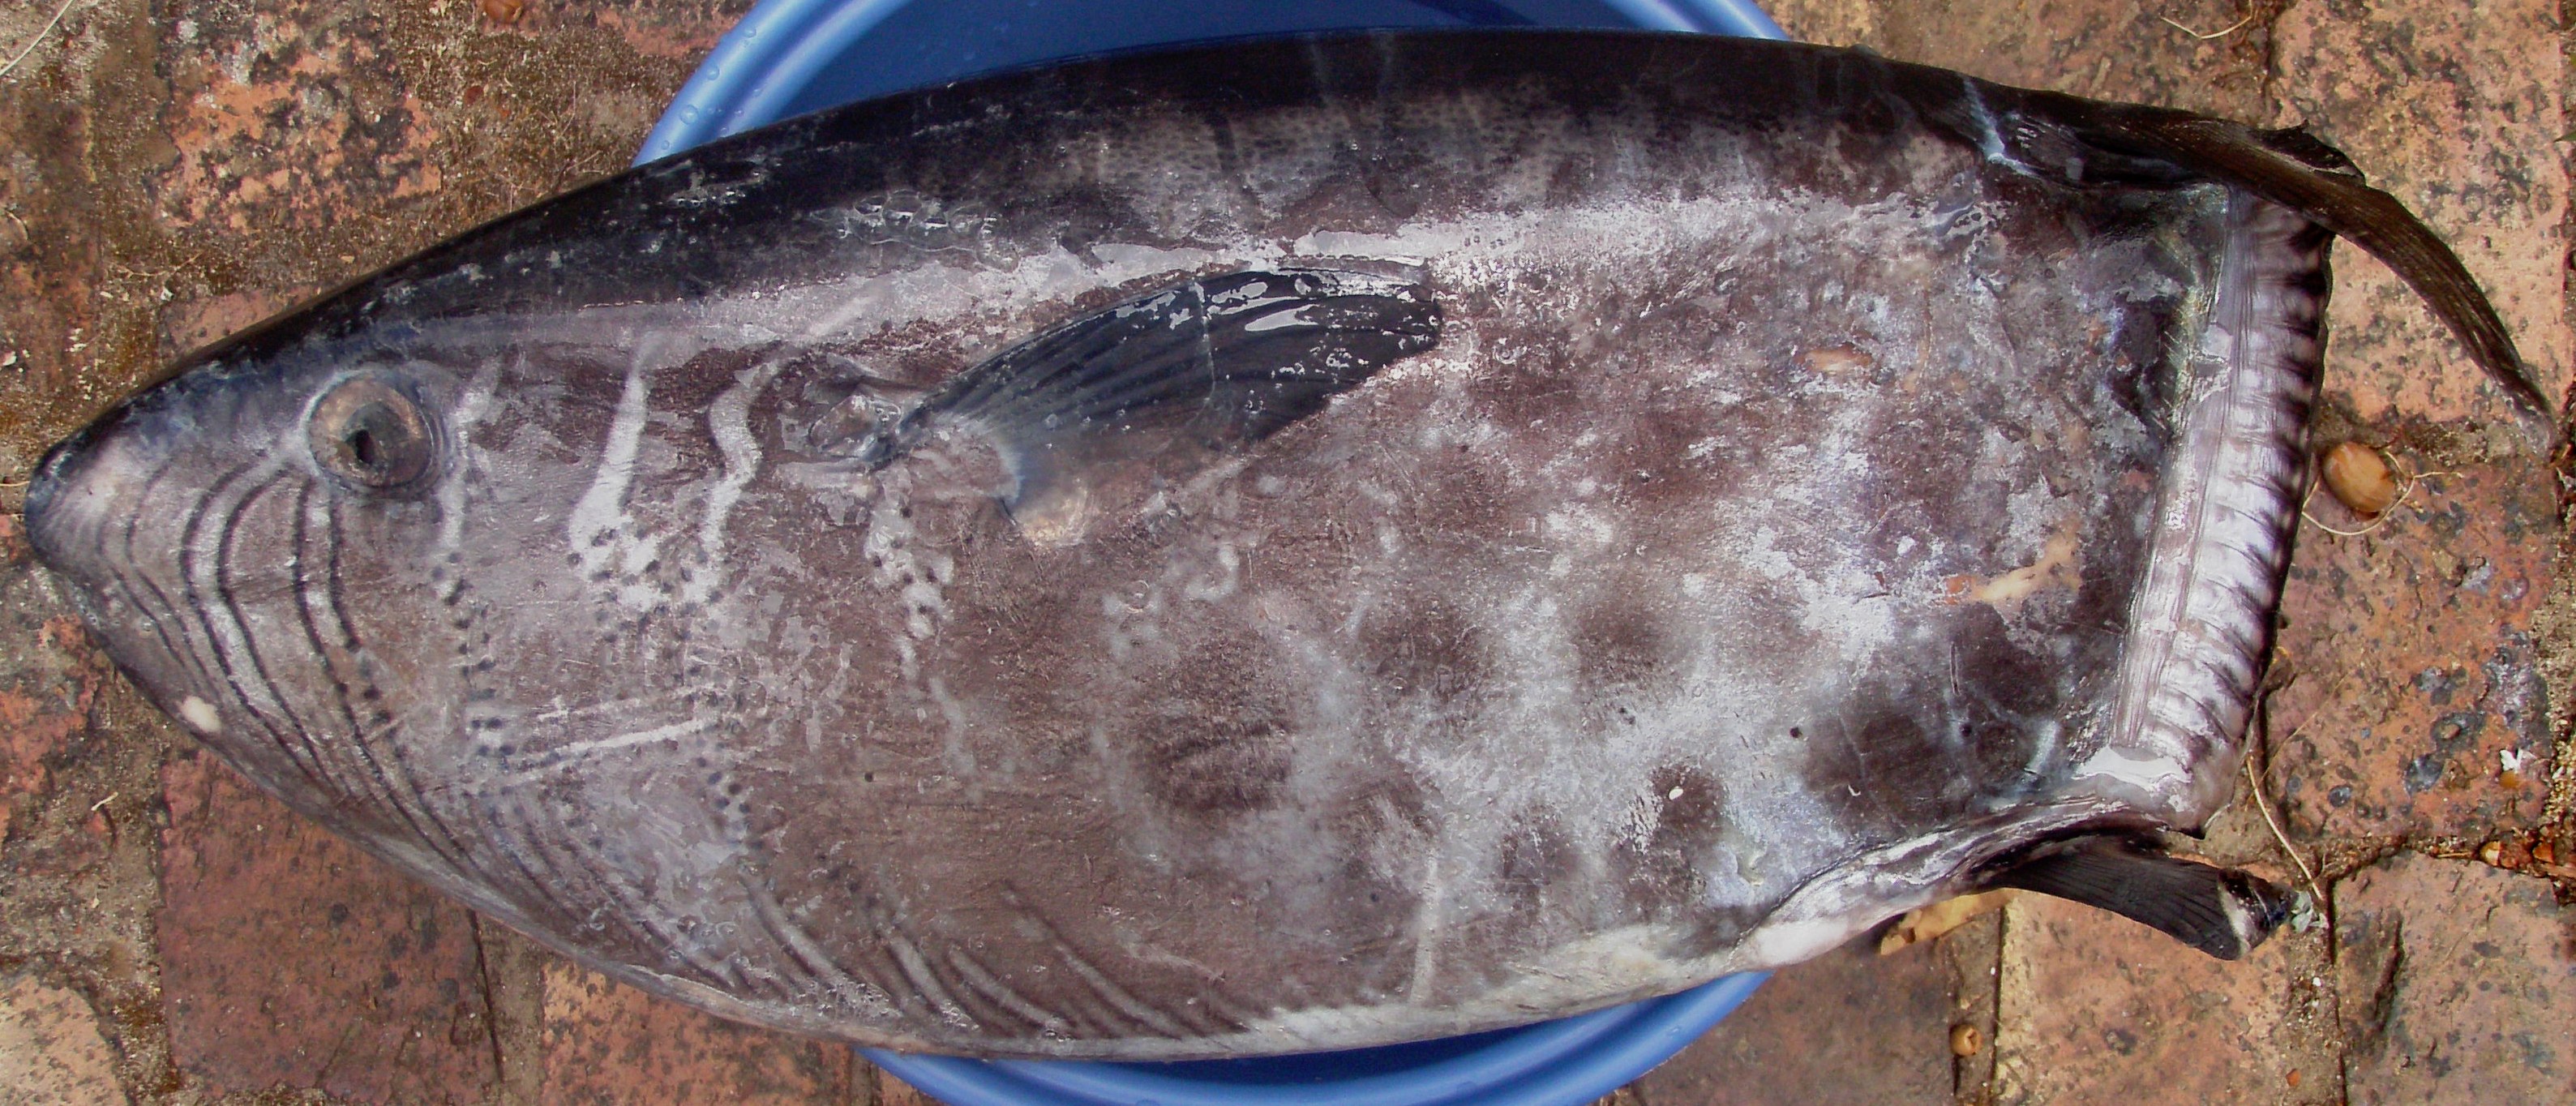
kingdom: Animalia
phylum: Chordata
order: Tetraodontiformes
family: Molidae
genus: Ranzania
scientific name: Ranzania laevis
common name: Slender sunfish
